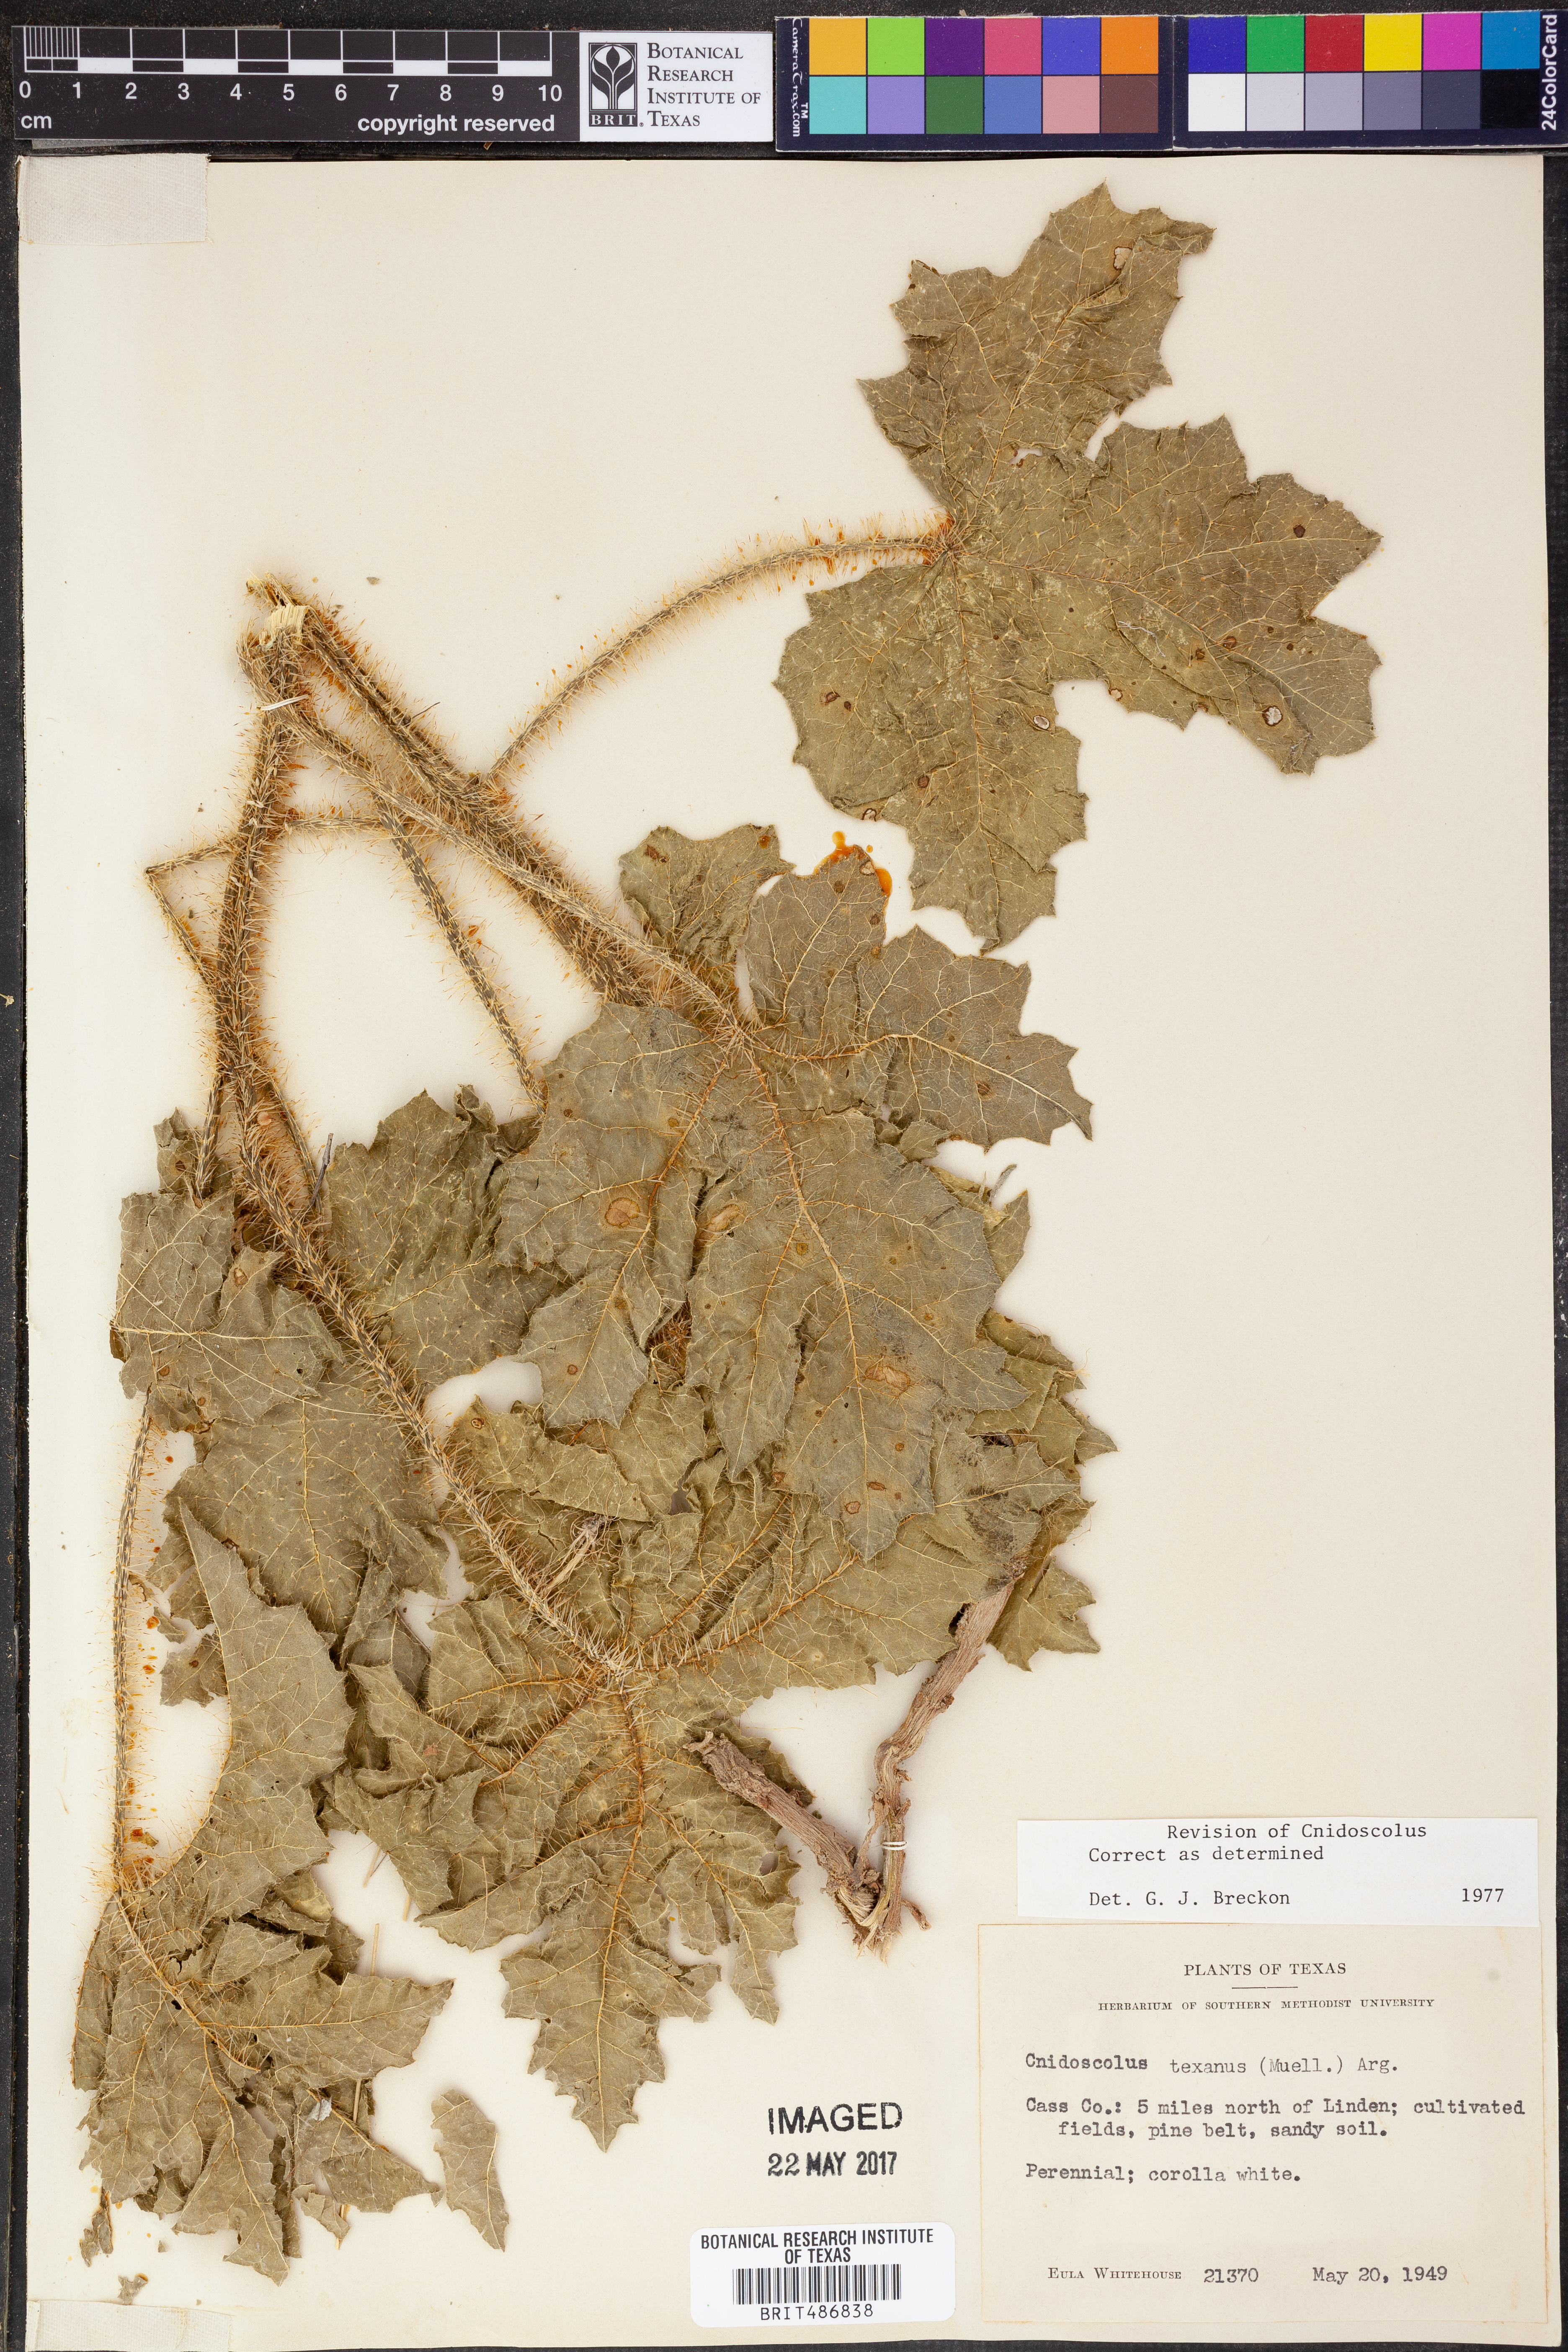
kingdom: Plantae
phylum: Tracheophyta
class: Magnoliopsida
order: Malpighiales
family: Euphorbiaceae
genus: Cnidoscolus
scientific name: Cnidoscolus texanus
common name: Texas bull-nettle
